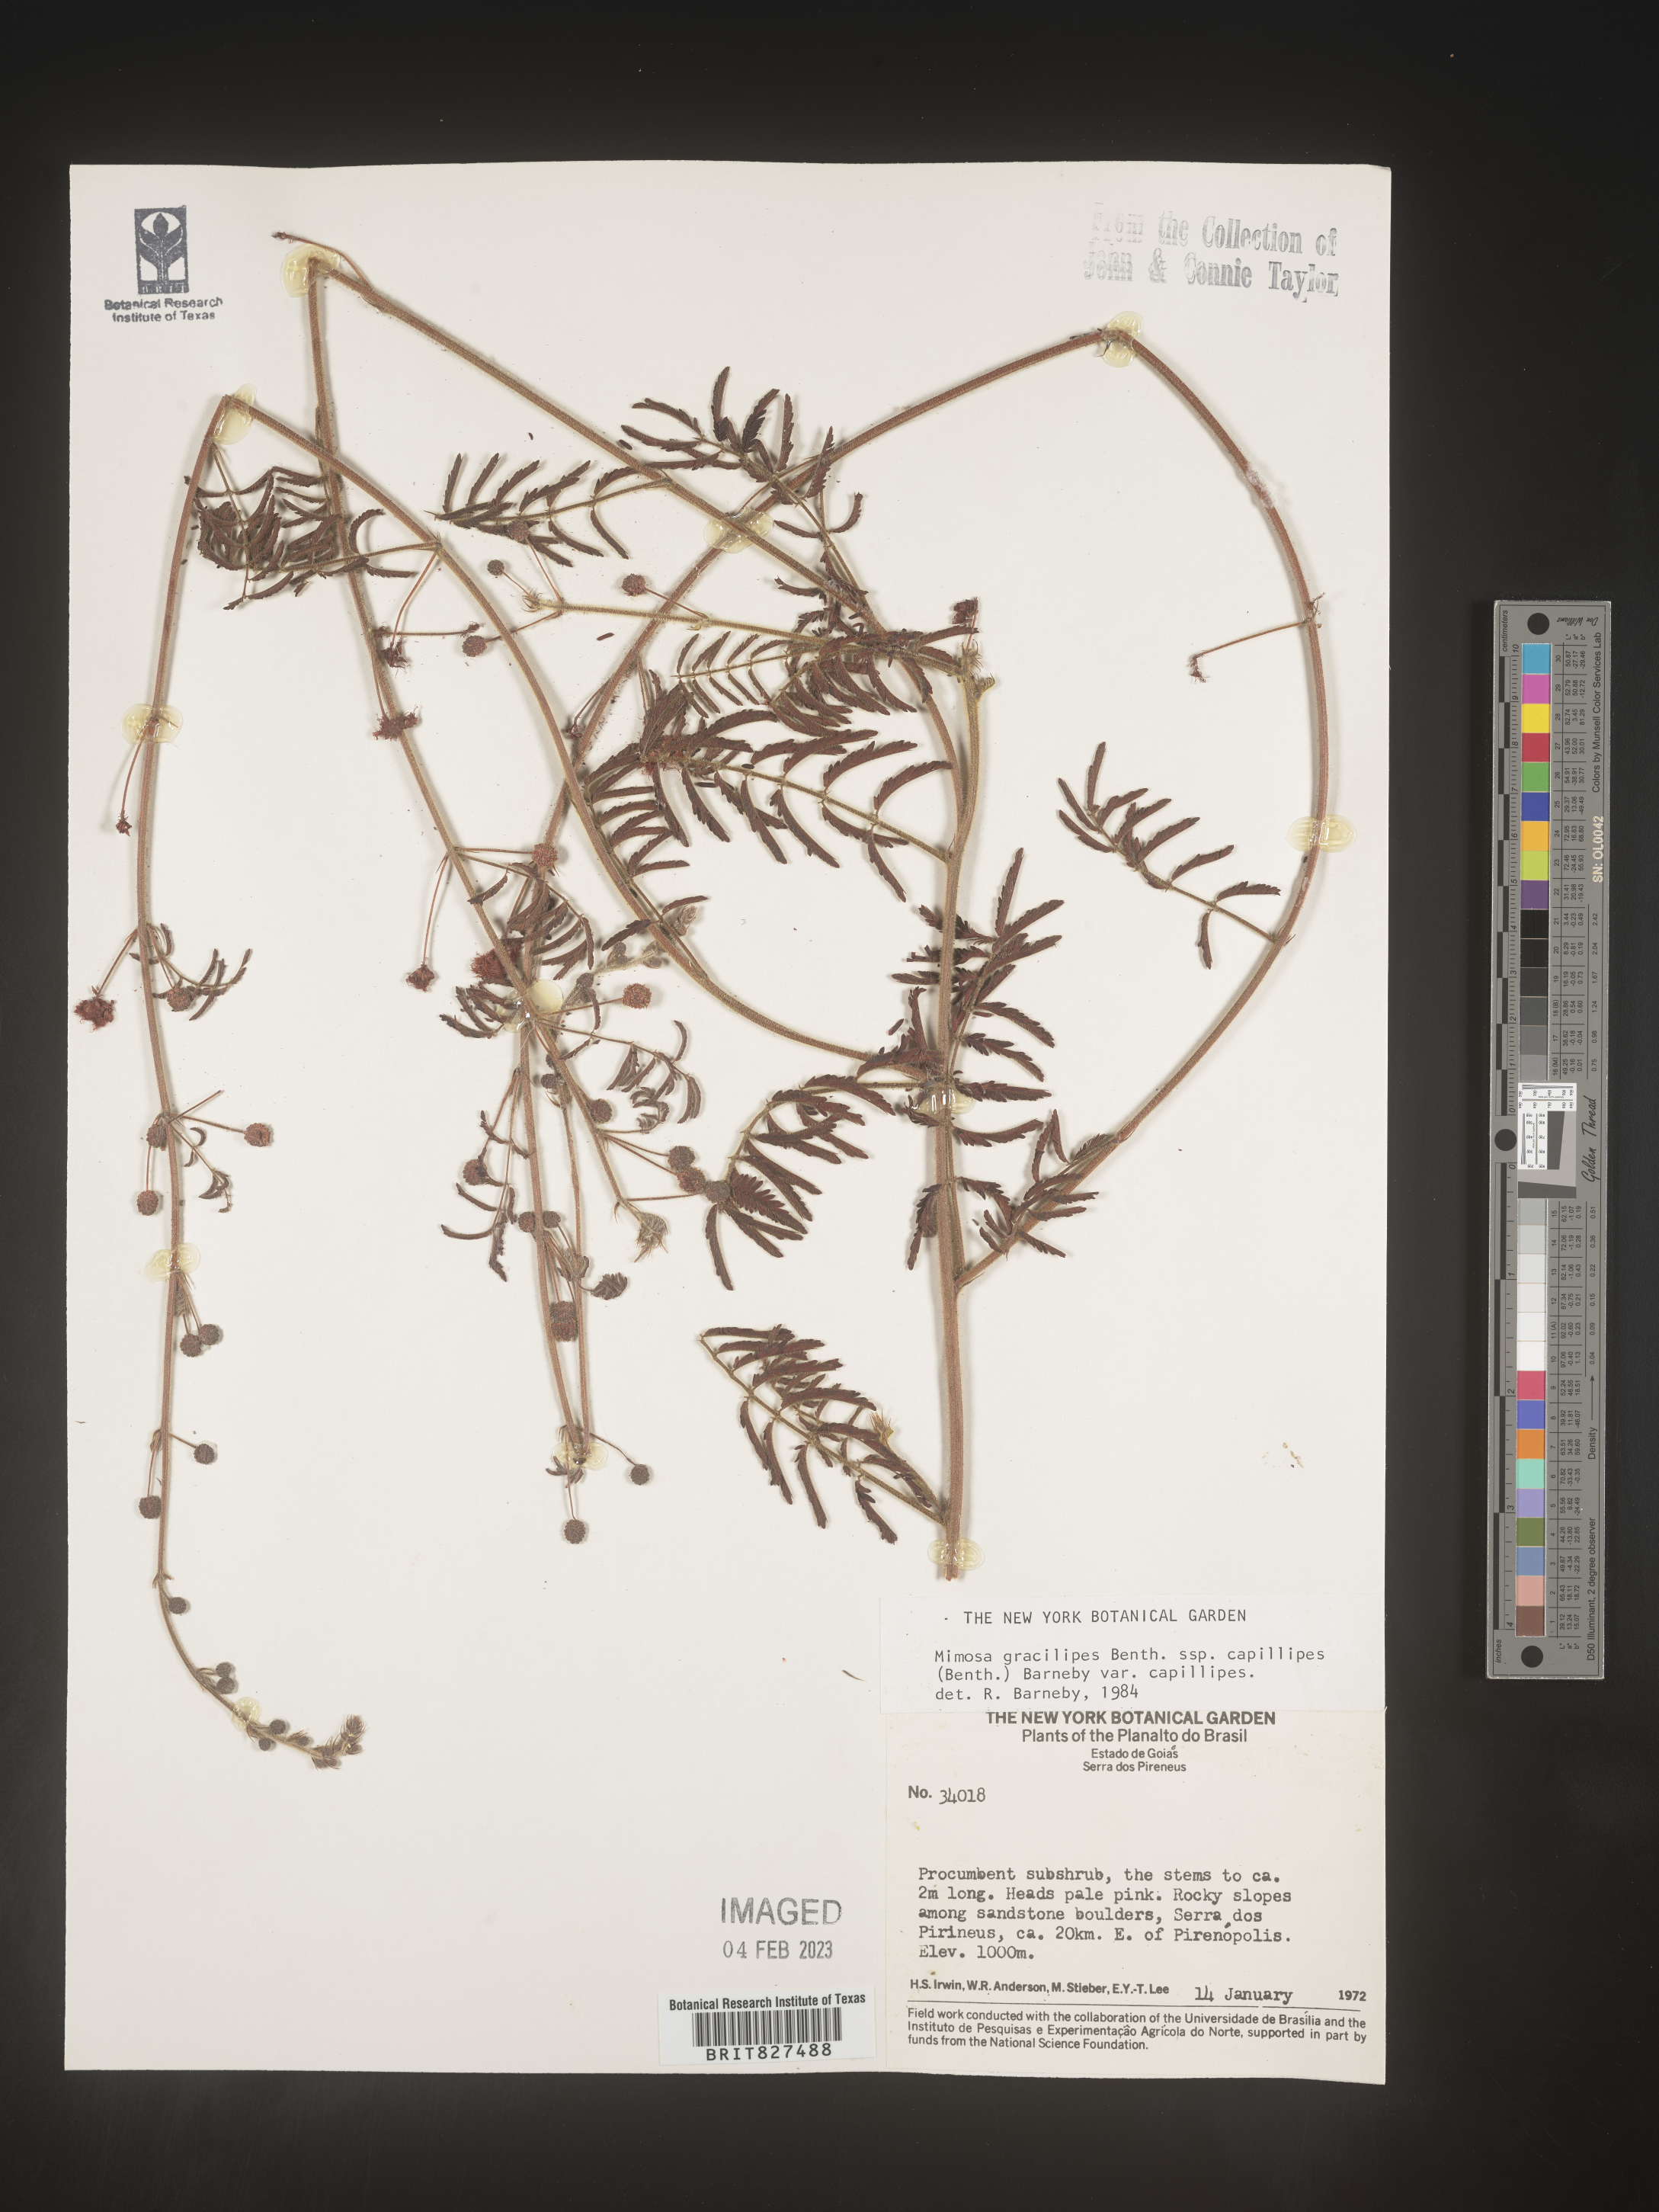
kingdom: Plantae
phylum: Tracheophyta
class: Magnoliopsida
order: Fabales
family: Fabaceae
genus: Mimosa
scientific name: Mimosa
